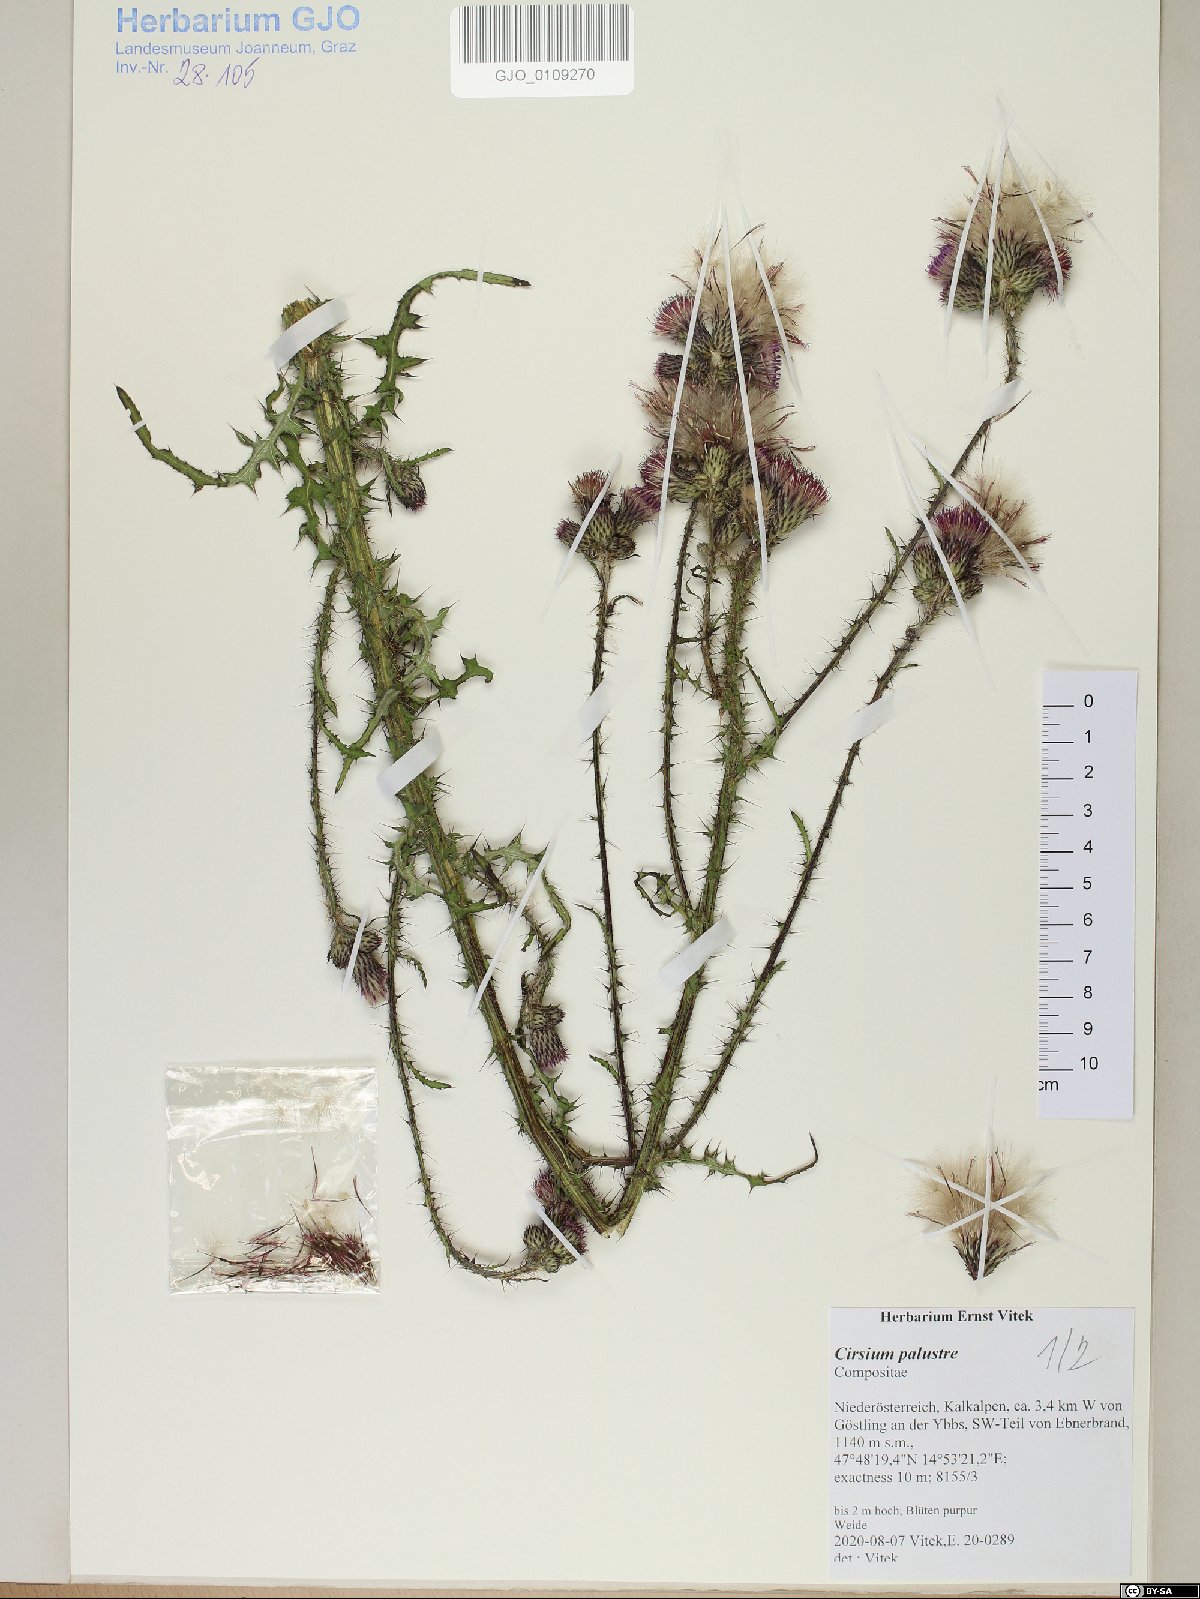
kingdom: Plantae
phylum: Tracheophyta
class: Magnoliopsida
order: Asterales
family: Asteraceae
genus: Cirsium
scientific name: Cirsium palustre
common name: Marsh thistle
